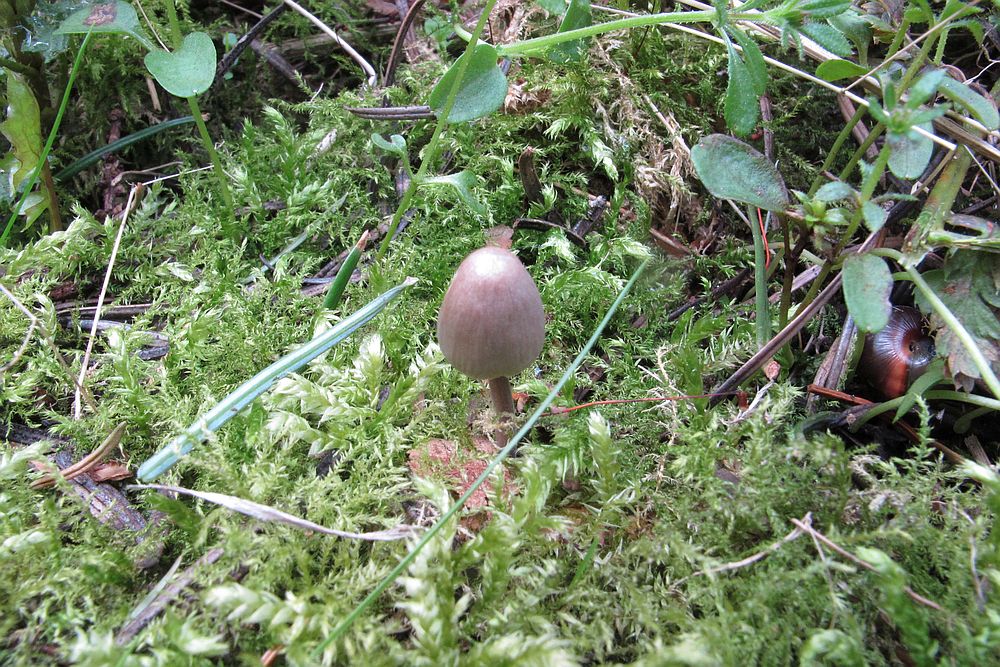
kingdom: Fungi
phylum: Basidiomycota
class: Agaricomycetes
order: Agaricales
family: Mycenaceae
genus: Mycena
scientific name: Mycena leptocephala
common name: klor-huesvamp
